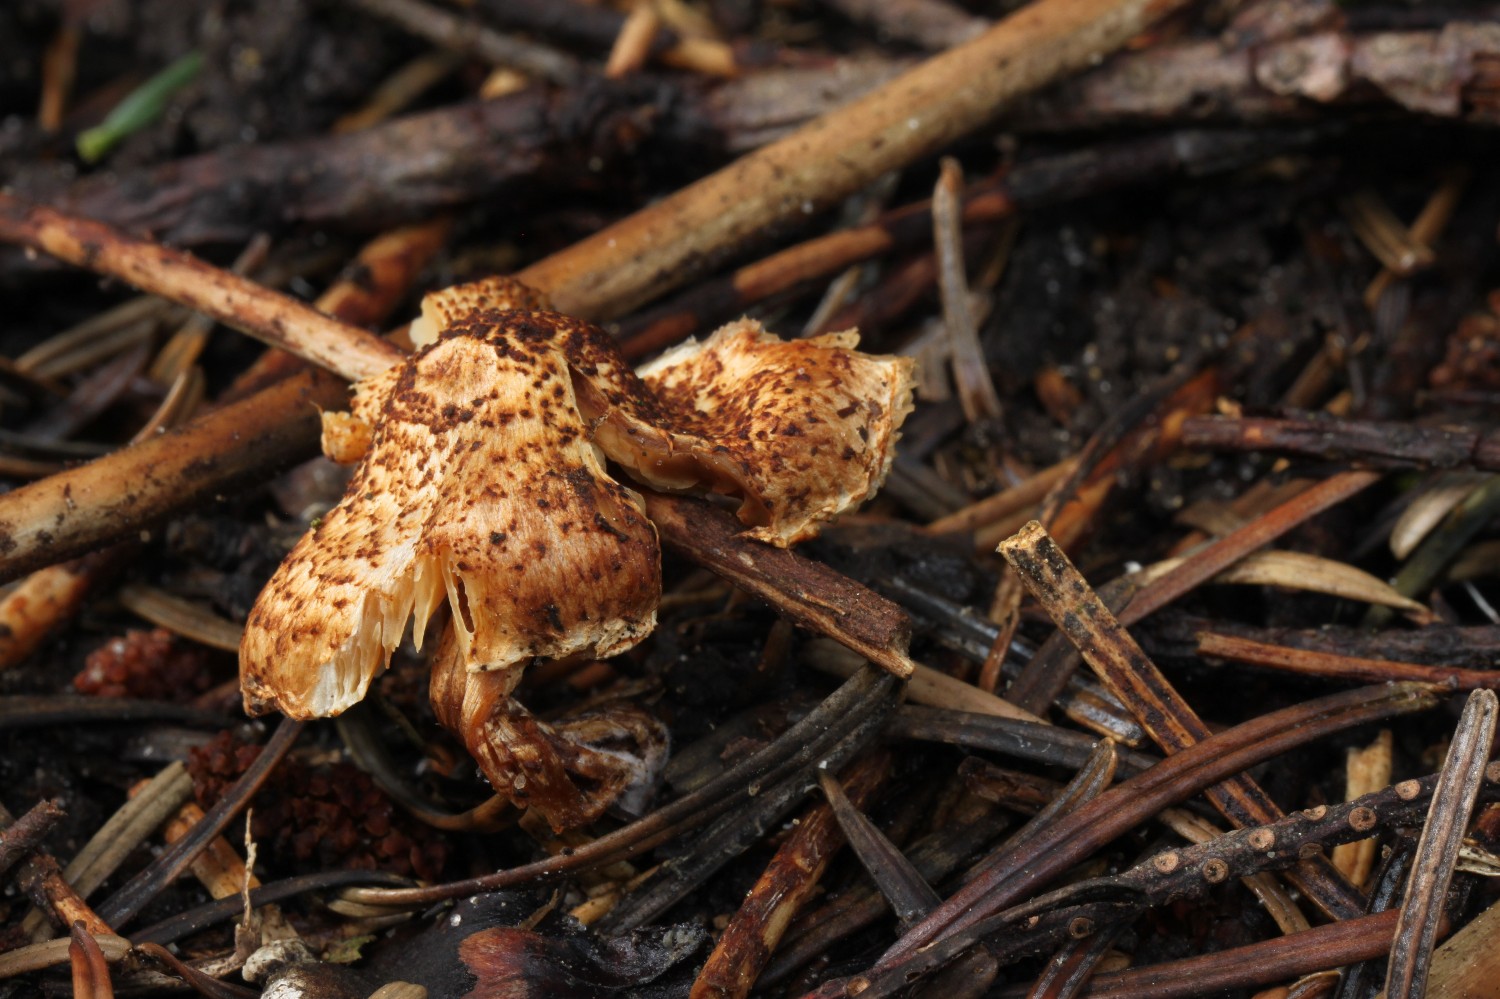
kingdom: Fungi
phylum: Basidiomycota
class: Agaricomycetes
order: Agaricales
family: Agaricaceae
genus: Lepiota
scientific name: Lepiota castanea
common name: kastaniebrun parasolhat
